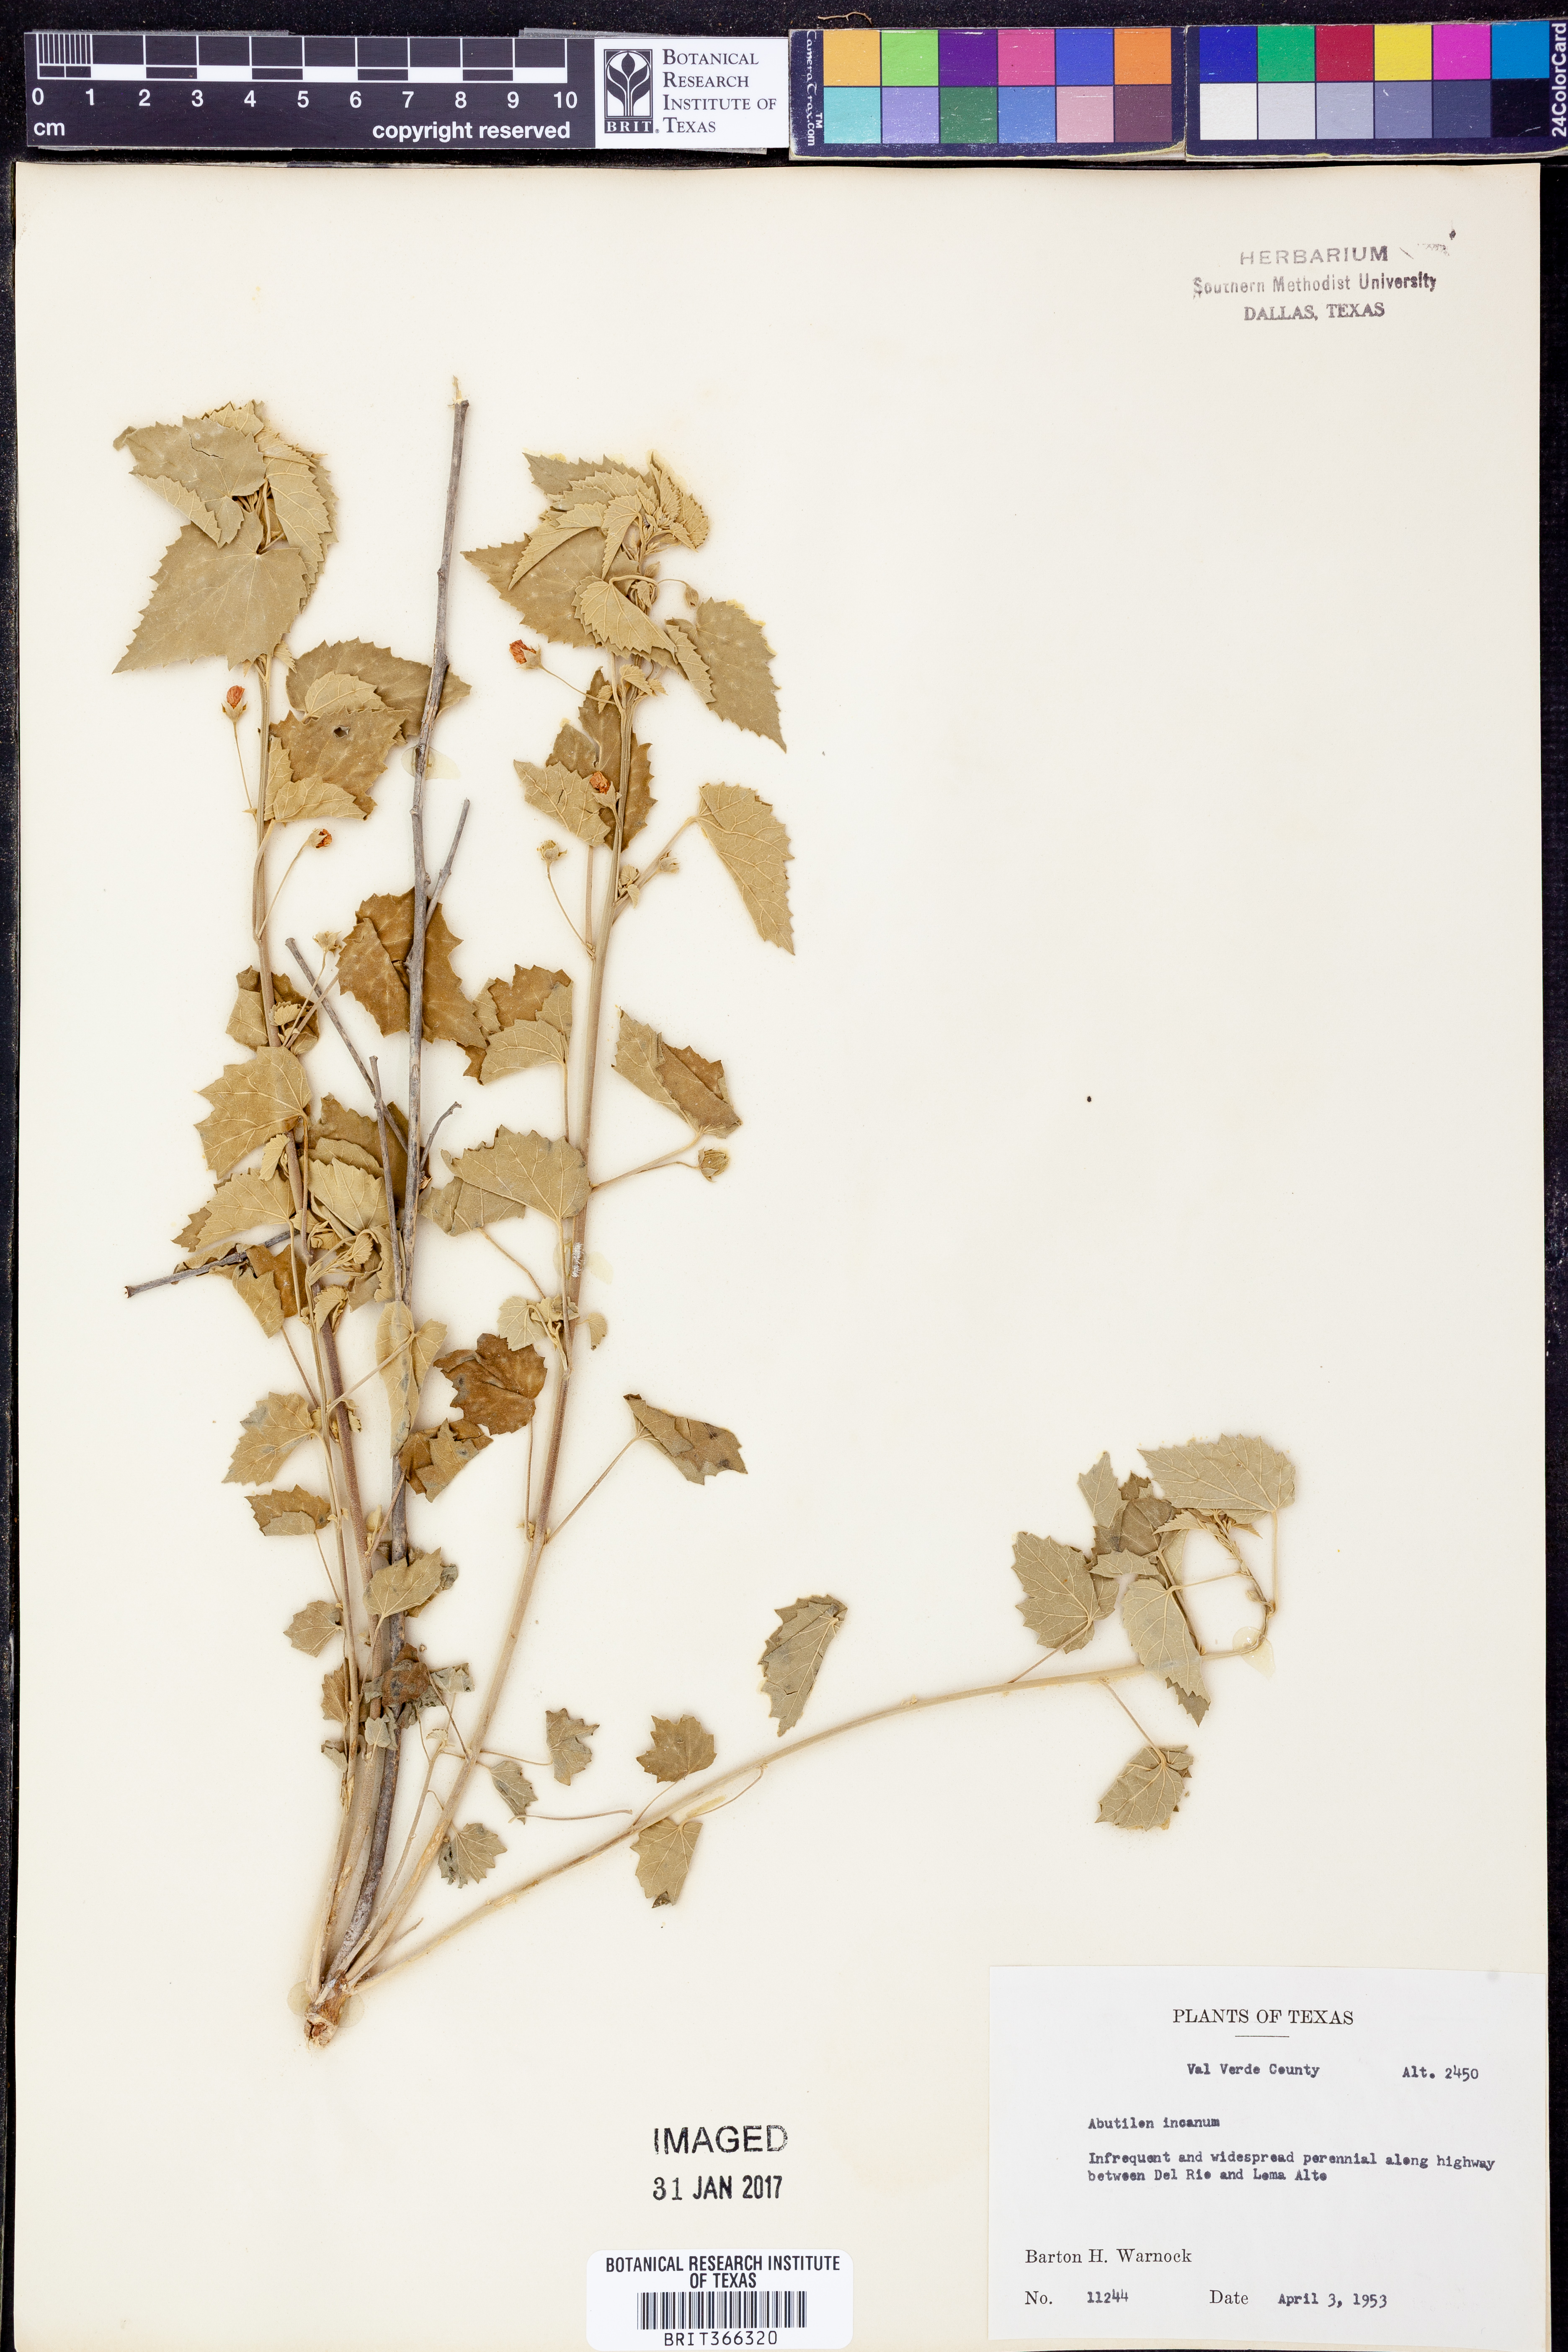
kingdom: Plantae
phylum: Tracheophyta
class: Magnoliopsida
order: Malvales
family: Malvaceae
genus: Abutilon
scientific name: Abutilon incanum
